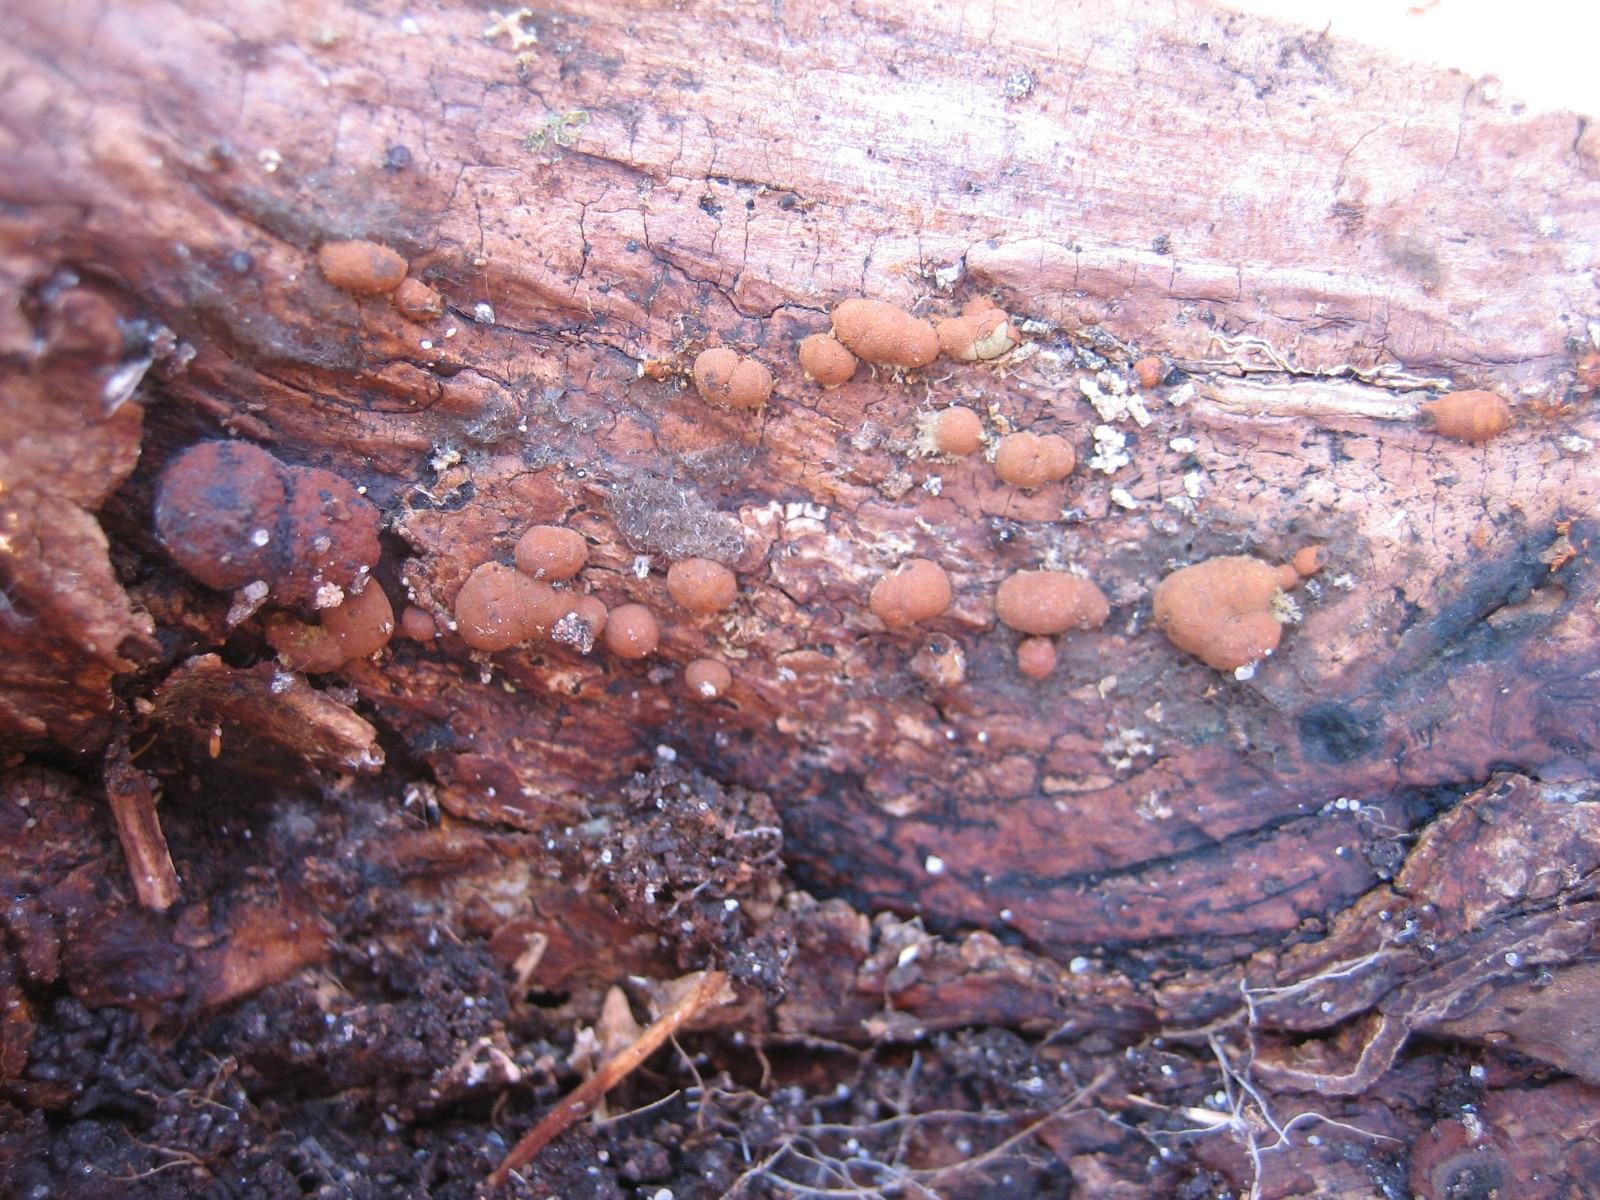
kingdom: Fungi
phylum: Ascomycota
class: Sordariomycetes
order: Xylariales
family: Hypoxylaceae
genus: Hypoxylon
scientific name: Hypoxylon howeanum
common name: halvkugleformet kulbær
